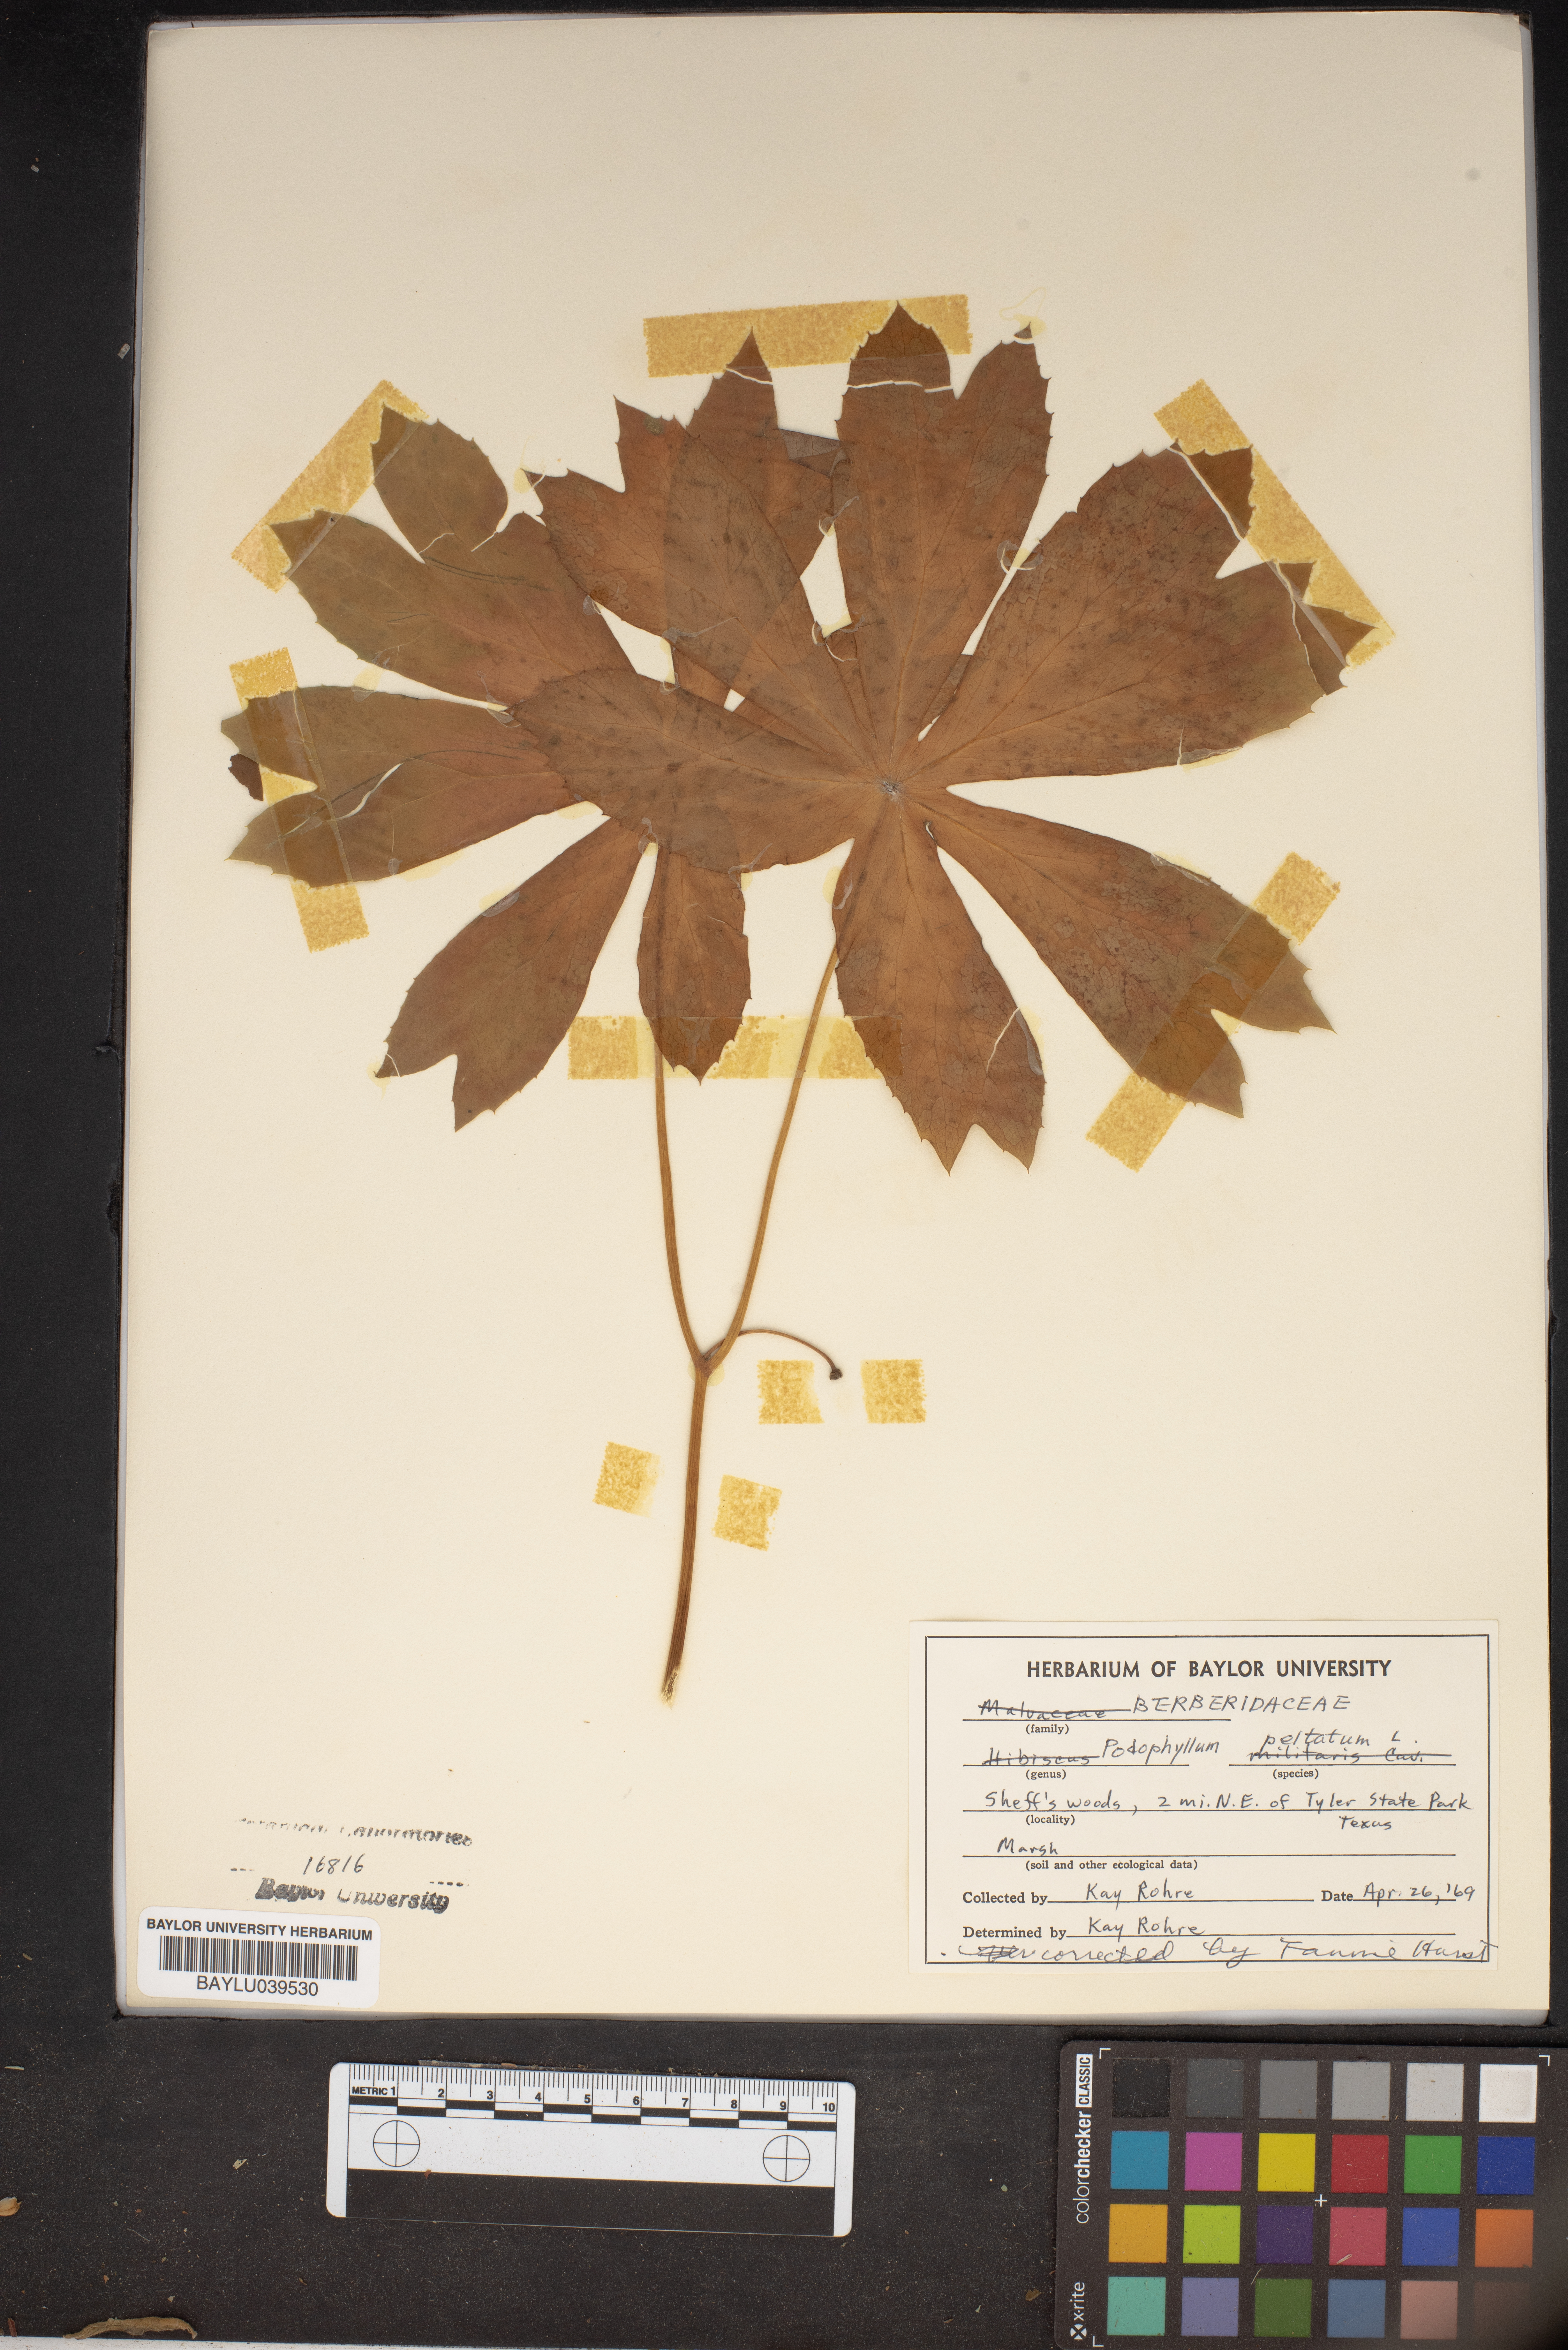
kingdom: Plantae
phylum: Tracheophyta
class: Magnoliopsida
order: Ranunculales
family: Berberidaceae
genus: Podophyllum
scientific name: Podophyllum peltatum
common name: Wild mandrake
